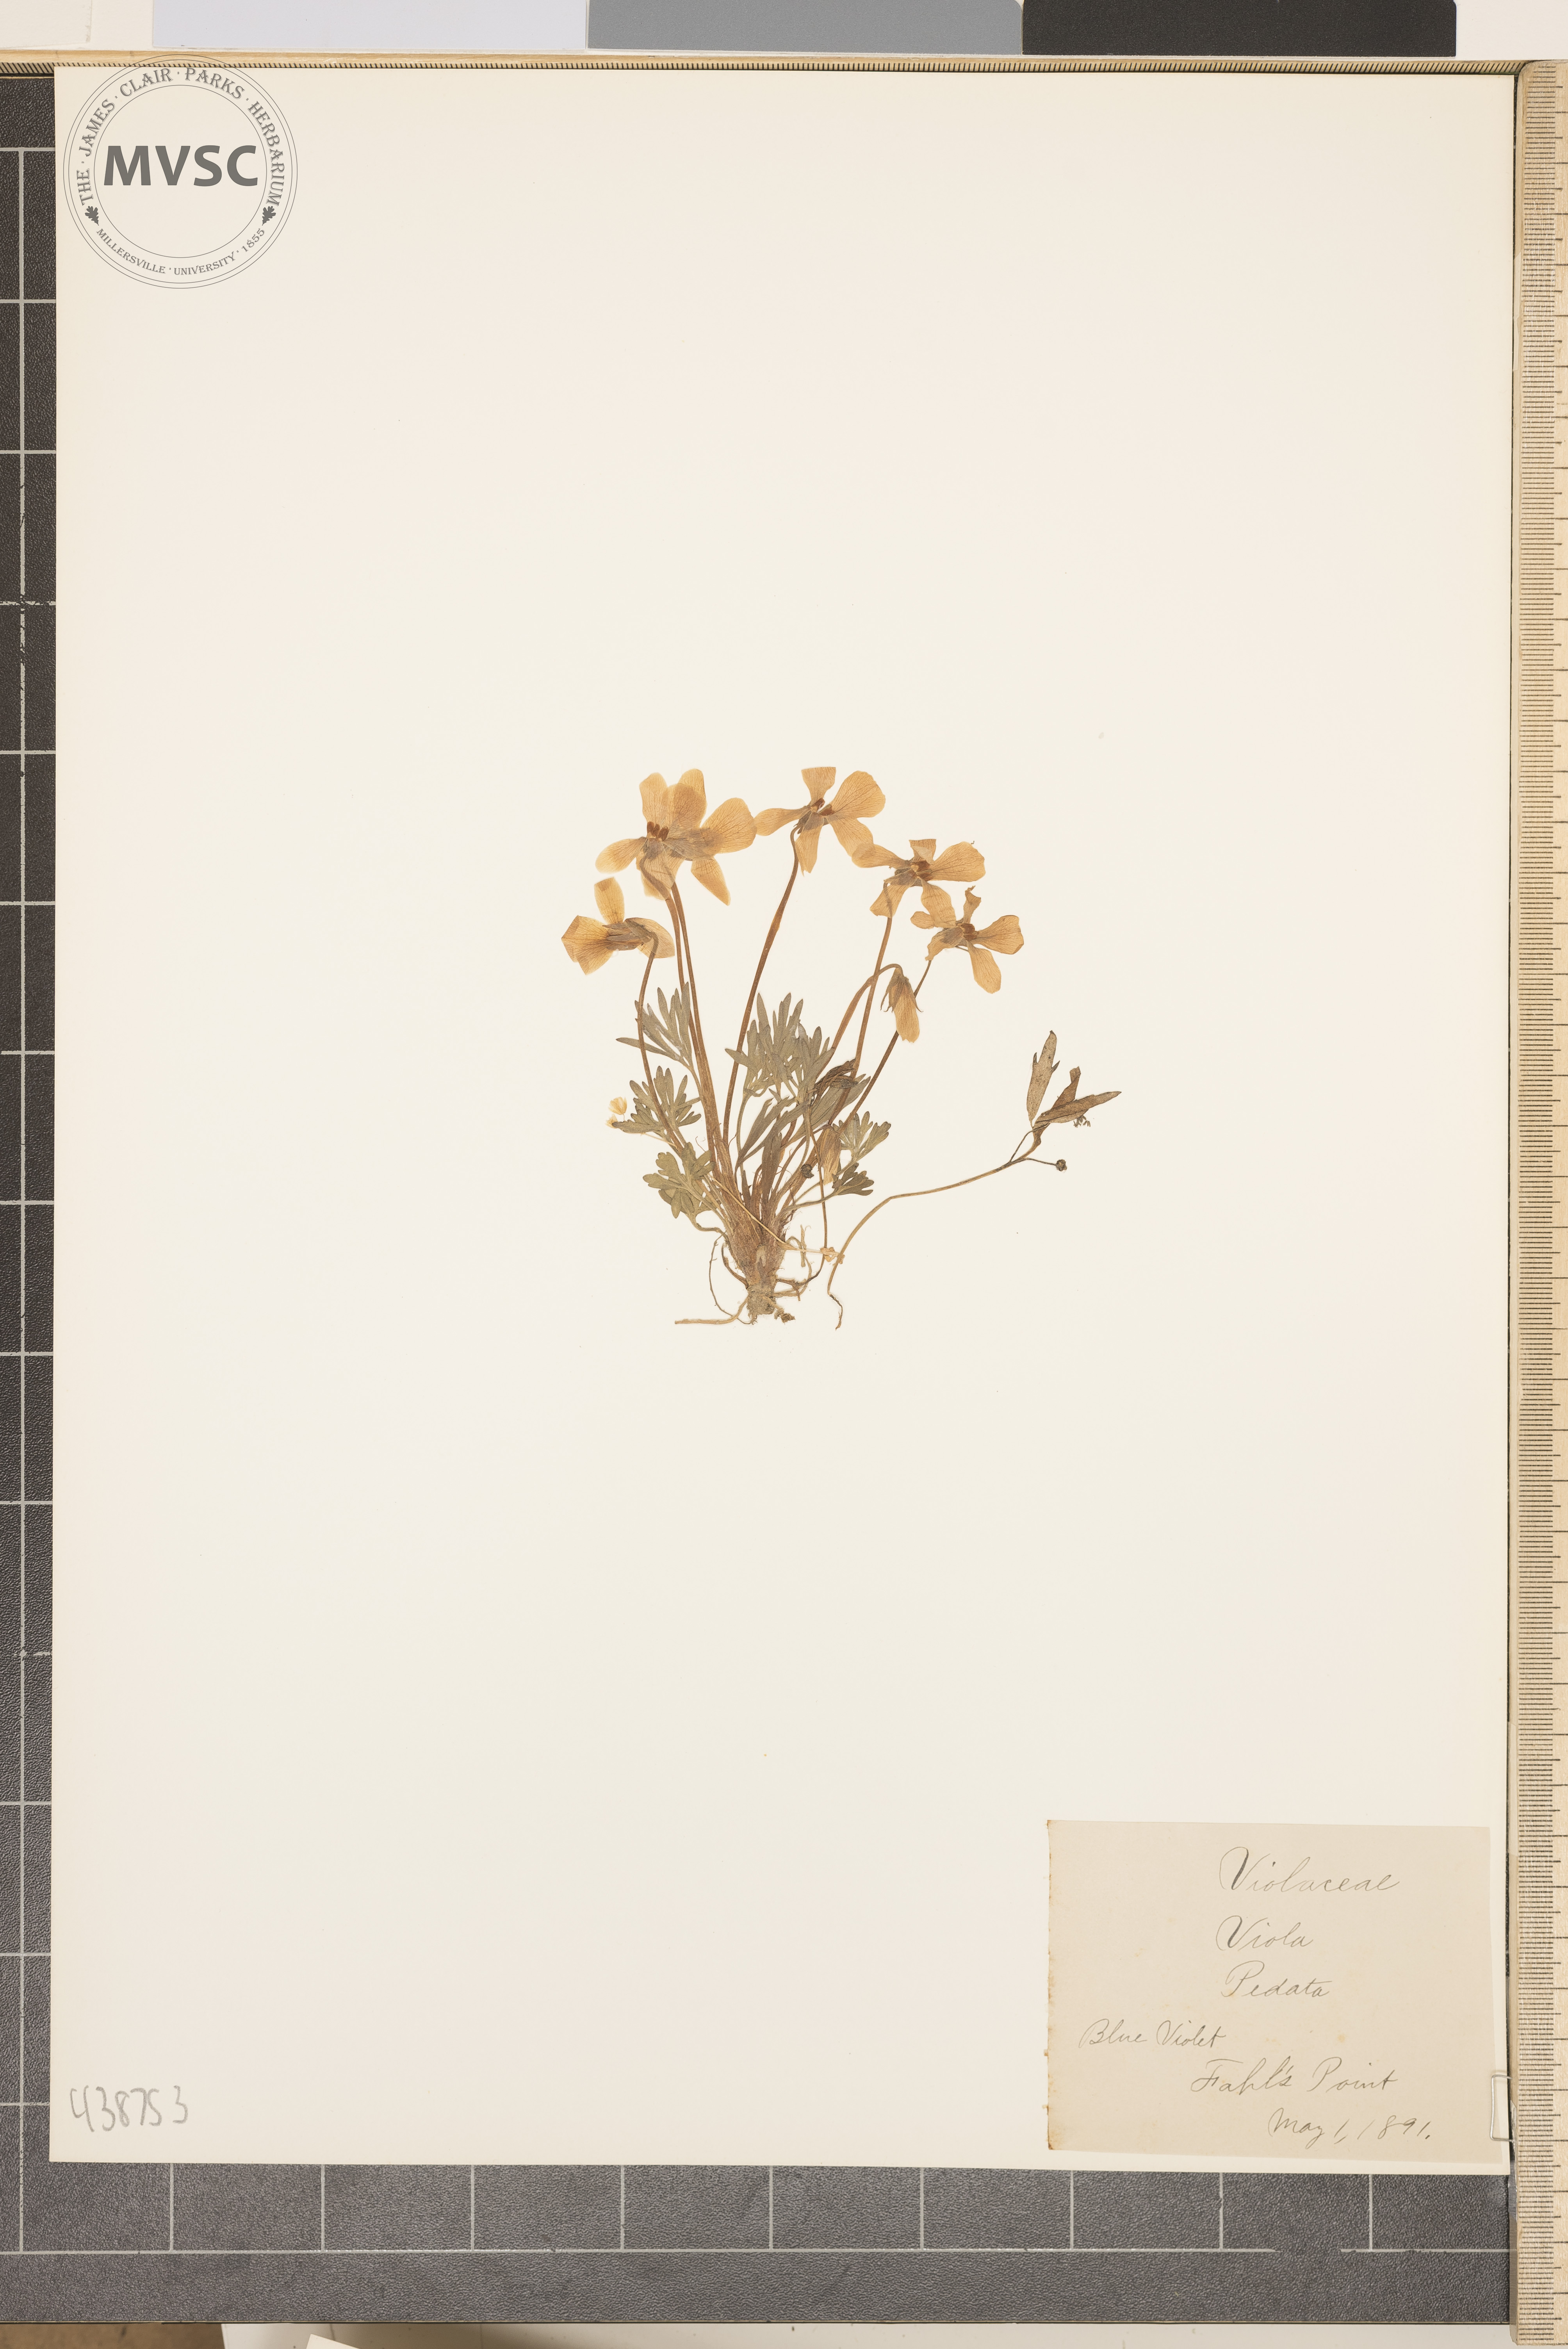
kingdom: Plantae
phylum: Tracheophyta
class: Magnoliopsida
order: Malpighiales
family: Violaceae
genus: Viola
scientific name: Viola pedata
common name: Blue violet
